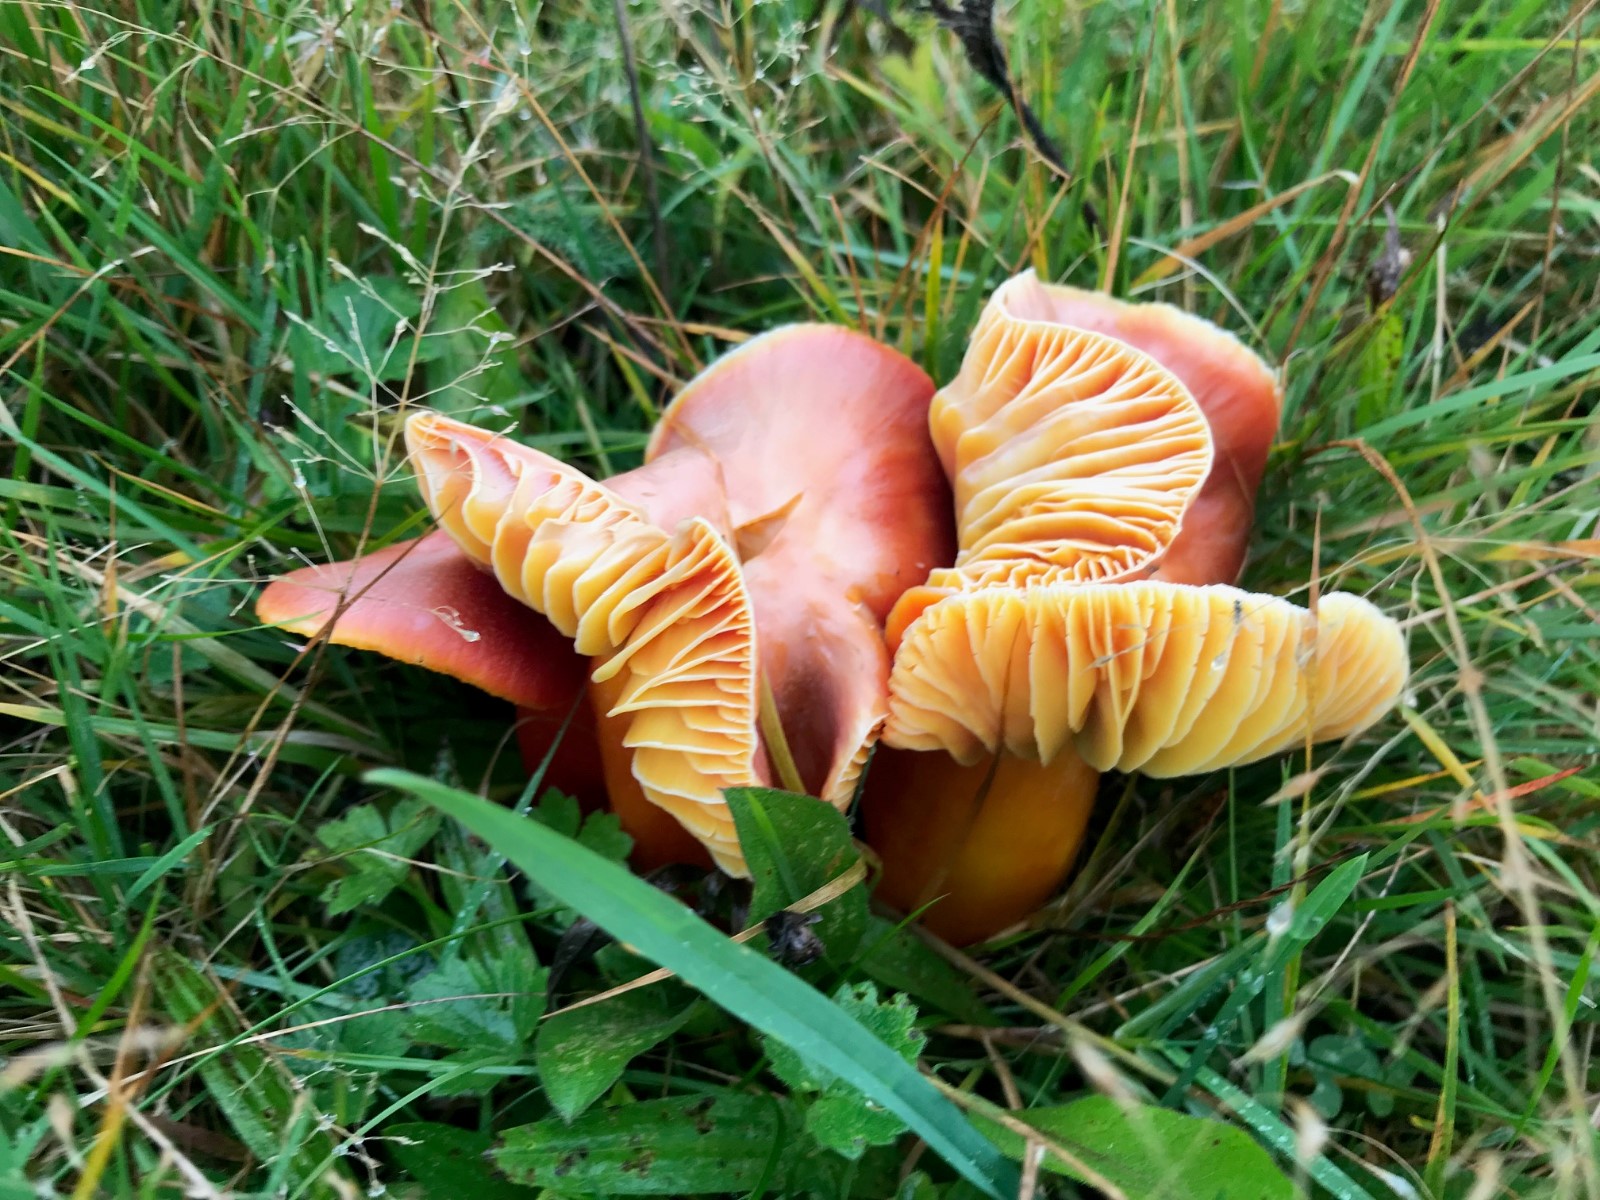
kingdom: Fungi
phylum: Basidiomycota
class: Agaricomycetes
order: Agaricales
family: Hygrophoraceae
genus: Hygrocybe
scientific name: Hygrocybe punicea
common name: skarlagen-vokshat
